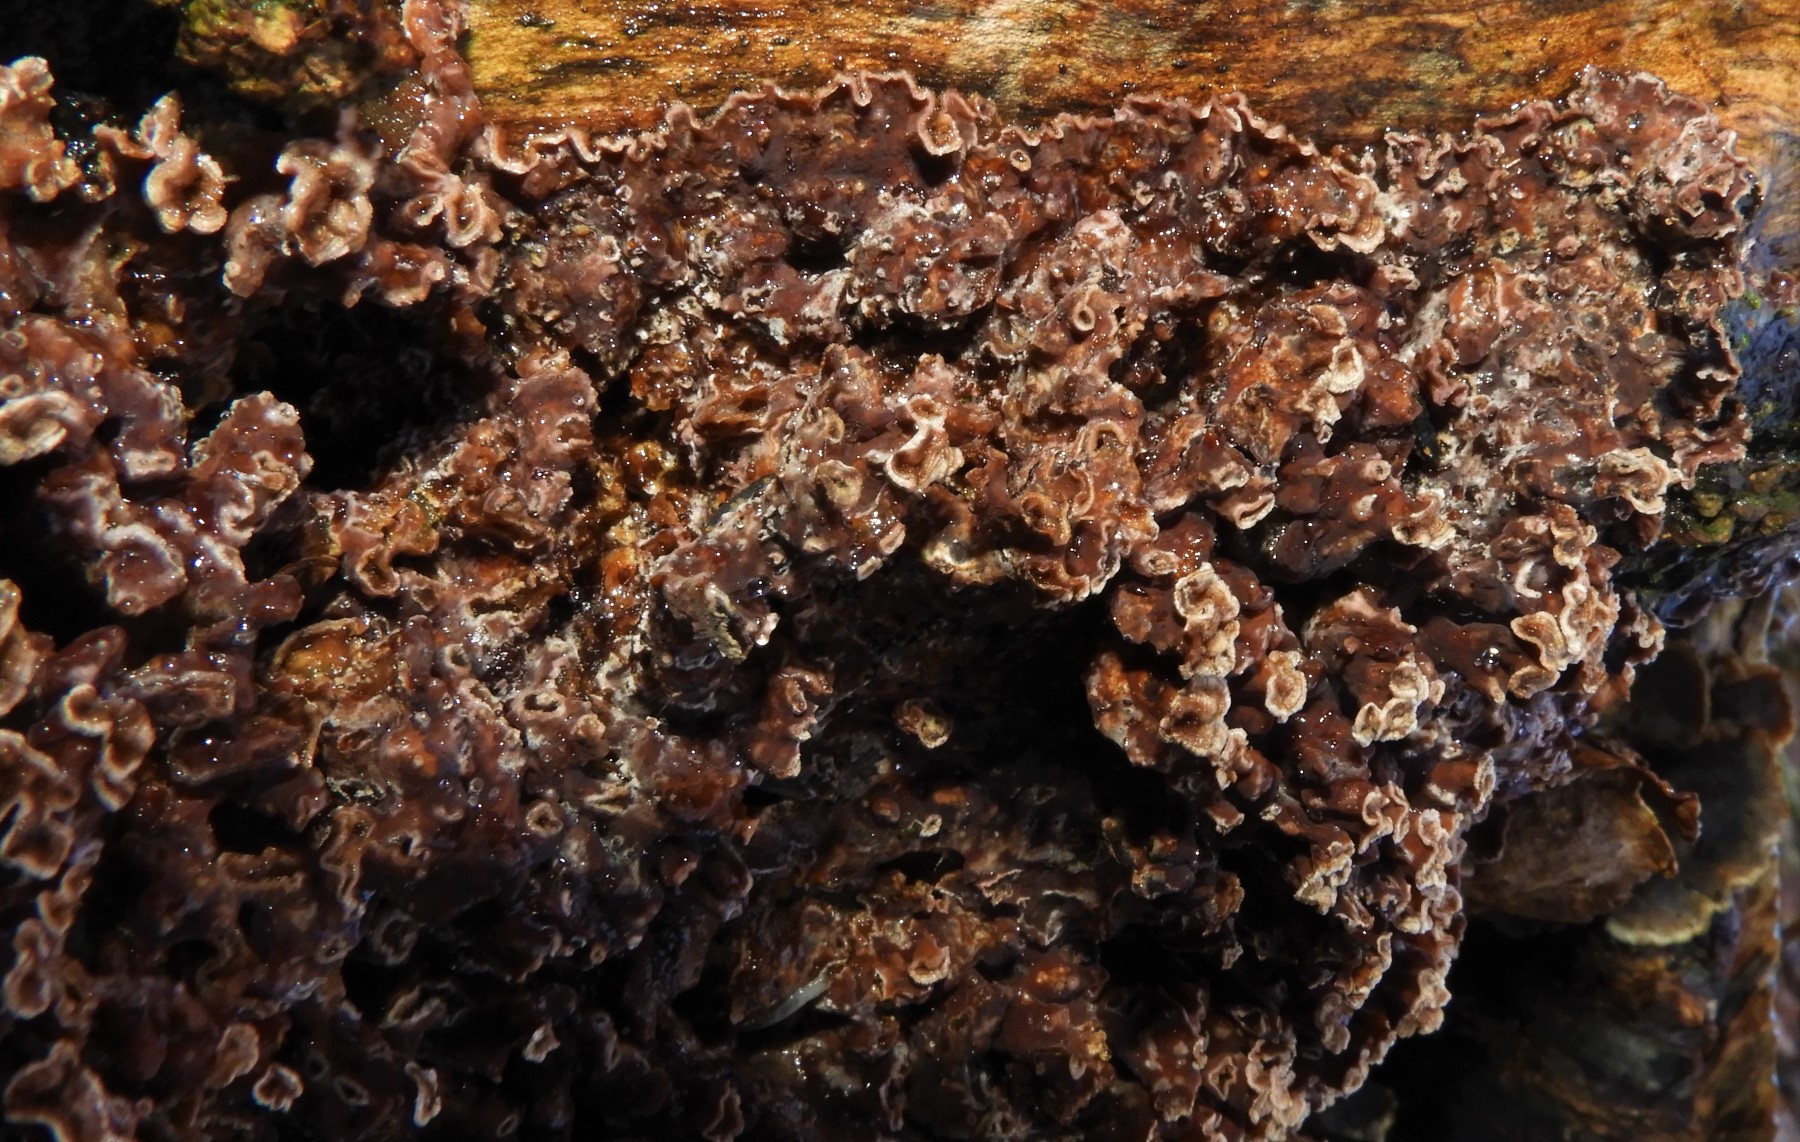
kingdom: Fungi
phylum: Basidiomycota
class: Agaricomycetes
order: Agaricales
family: Cyphellaceae
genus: Chondrostereum
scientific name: Chondrostereum purpureum
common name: purpurlædersvamp
